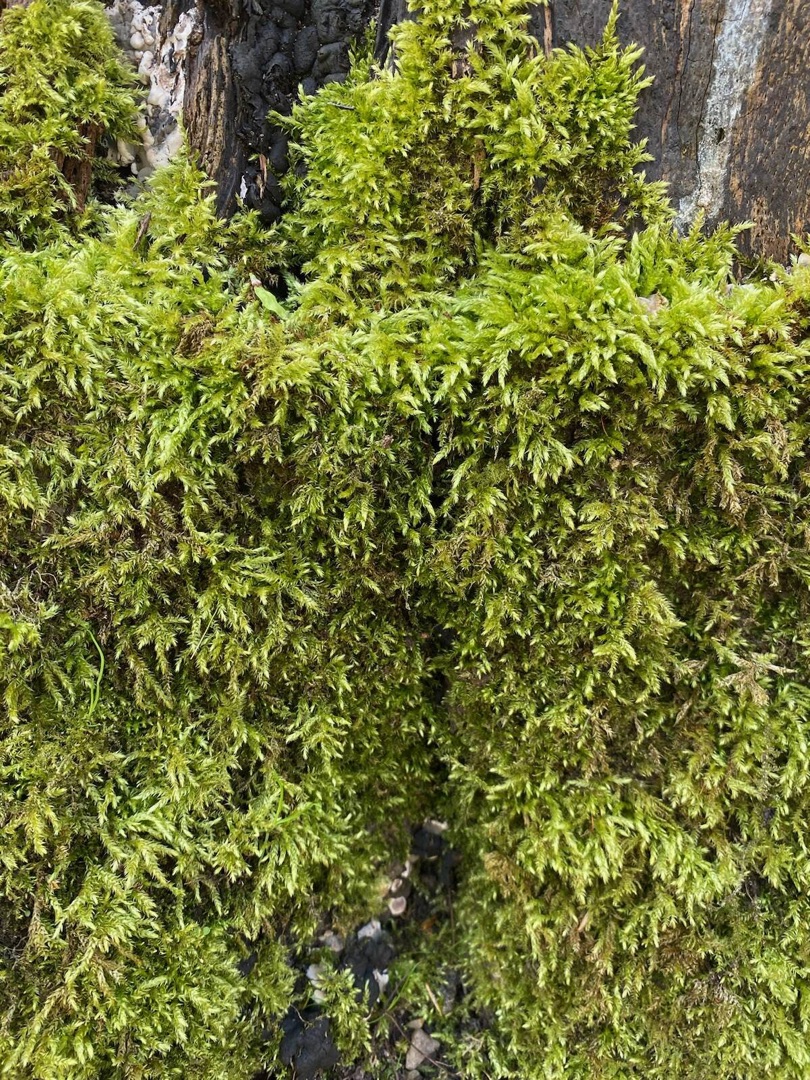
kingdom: Plantae
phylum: Bryophyta
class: Bryopsida
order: Hypnales
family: Brachytheciaceae
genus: Brachythecium
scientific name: Brachythecium rutabulum
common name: Almindelig kortkapsel
